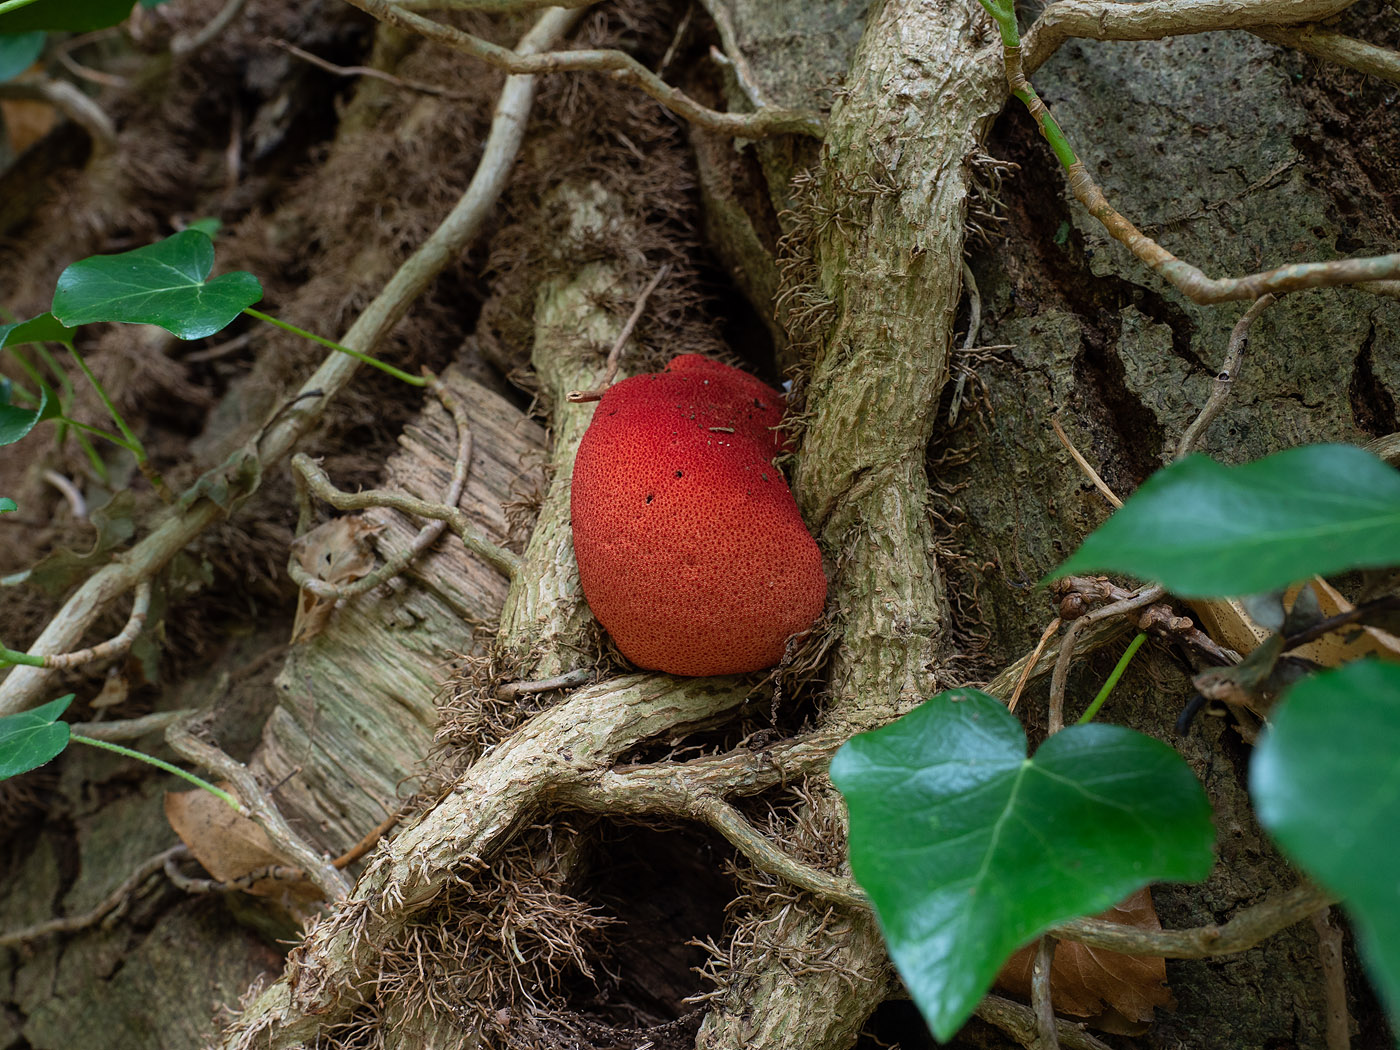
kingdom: Fungi
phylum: Basidiomycota
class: Agaricomycetes
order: Agaricales
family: Fistulinaceae
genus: Fistulina
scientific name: Fistulina hepatica
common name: oksetunge
